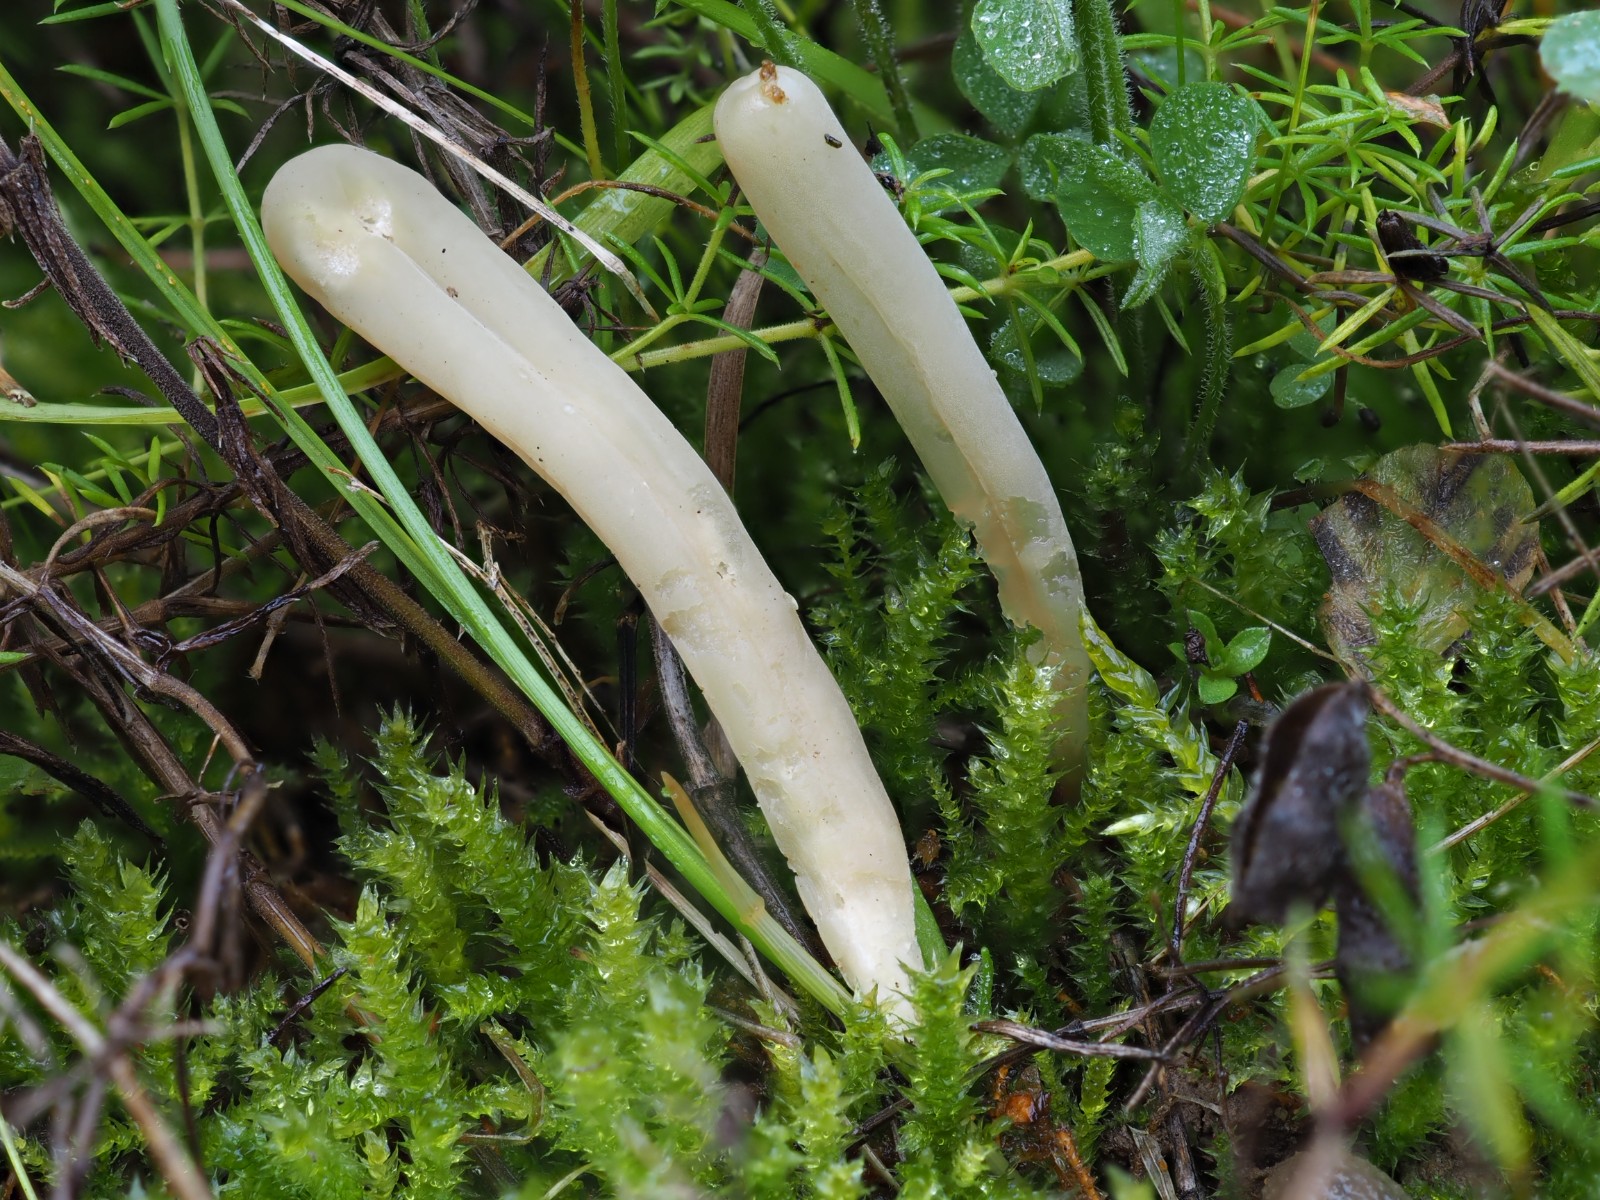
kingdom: Fungi
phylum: Basidiomycota
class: Agaricomycetes
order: Agaricales
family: Clavariaceae
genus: Clavaria
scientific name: Clavaria tenuipes
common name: isabellafarvet køllesvamp
